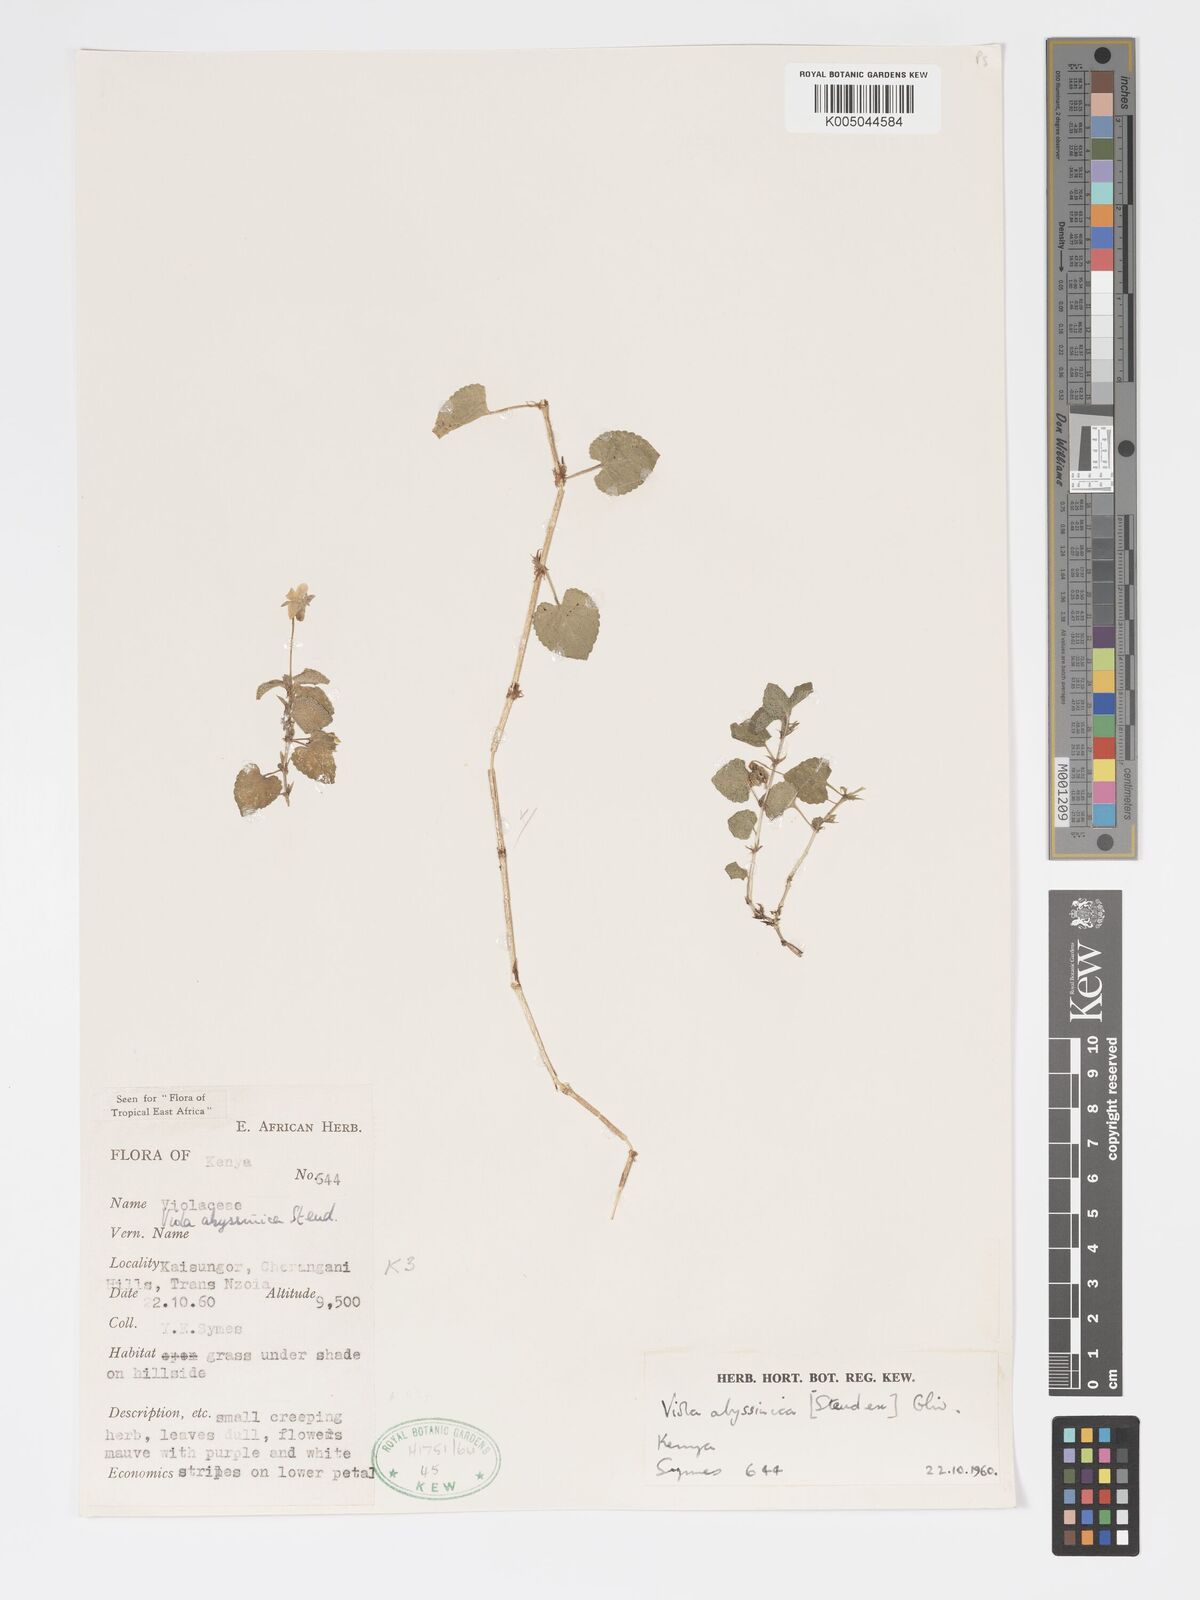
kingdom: Plantae
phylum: Tracheophyta
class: Magnoliopsida
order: Malpighiales
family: Violaceae
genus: Viola
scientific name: Viola abyssinica
